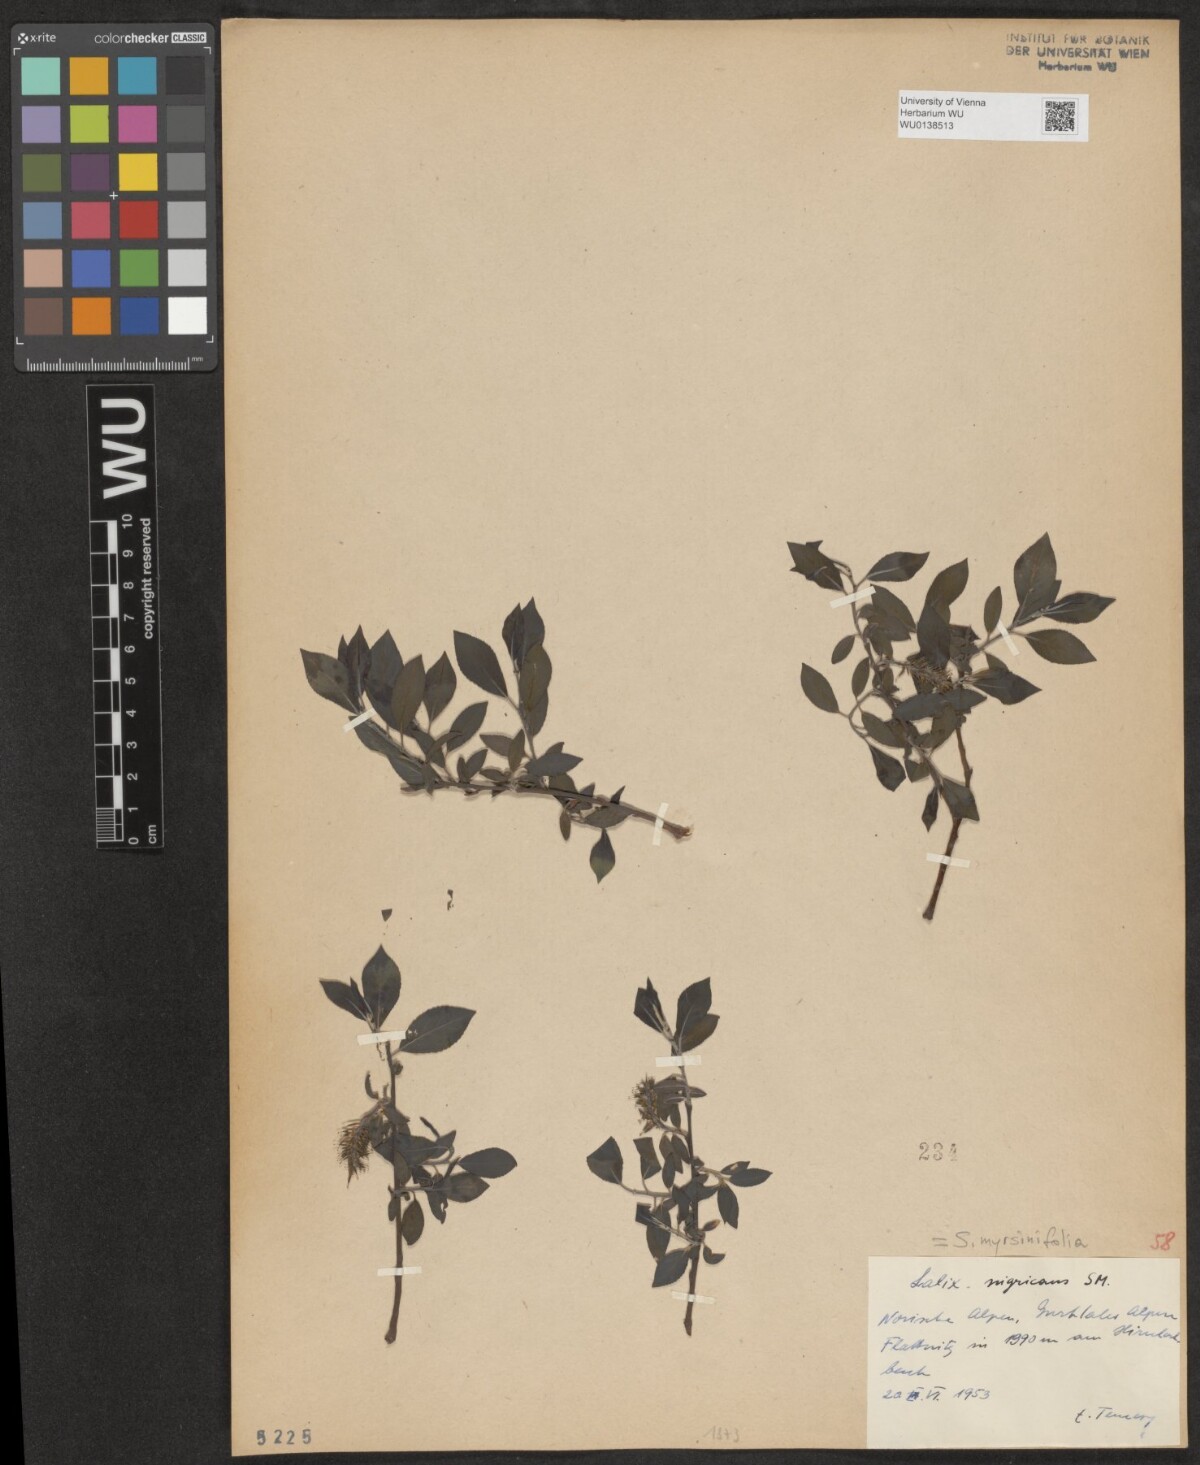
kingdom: Plantae
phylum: Tracheophyta
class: Magnoliopsida
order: Malpighiales
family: Salicaceae
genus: Salix
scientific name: Salix myrsinifolia
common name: Dark-leaved willow
